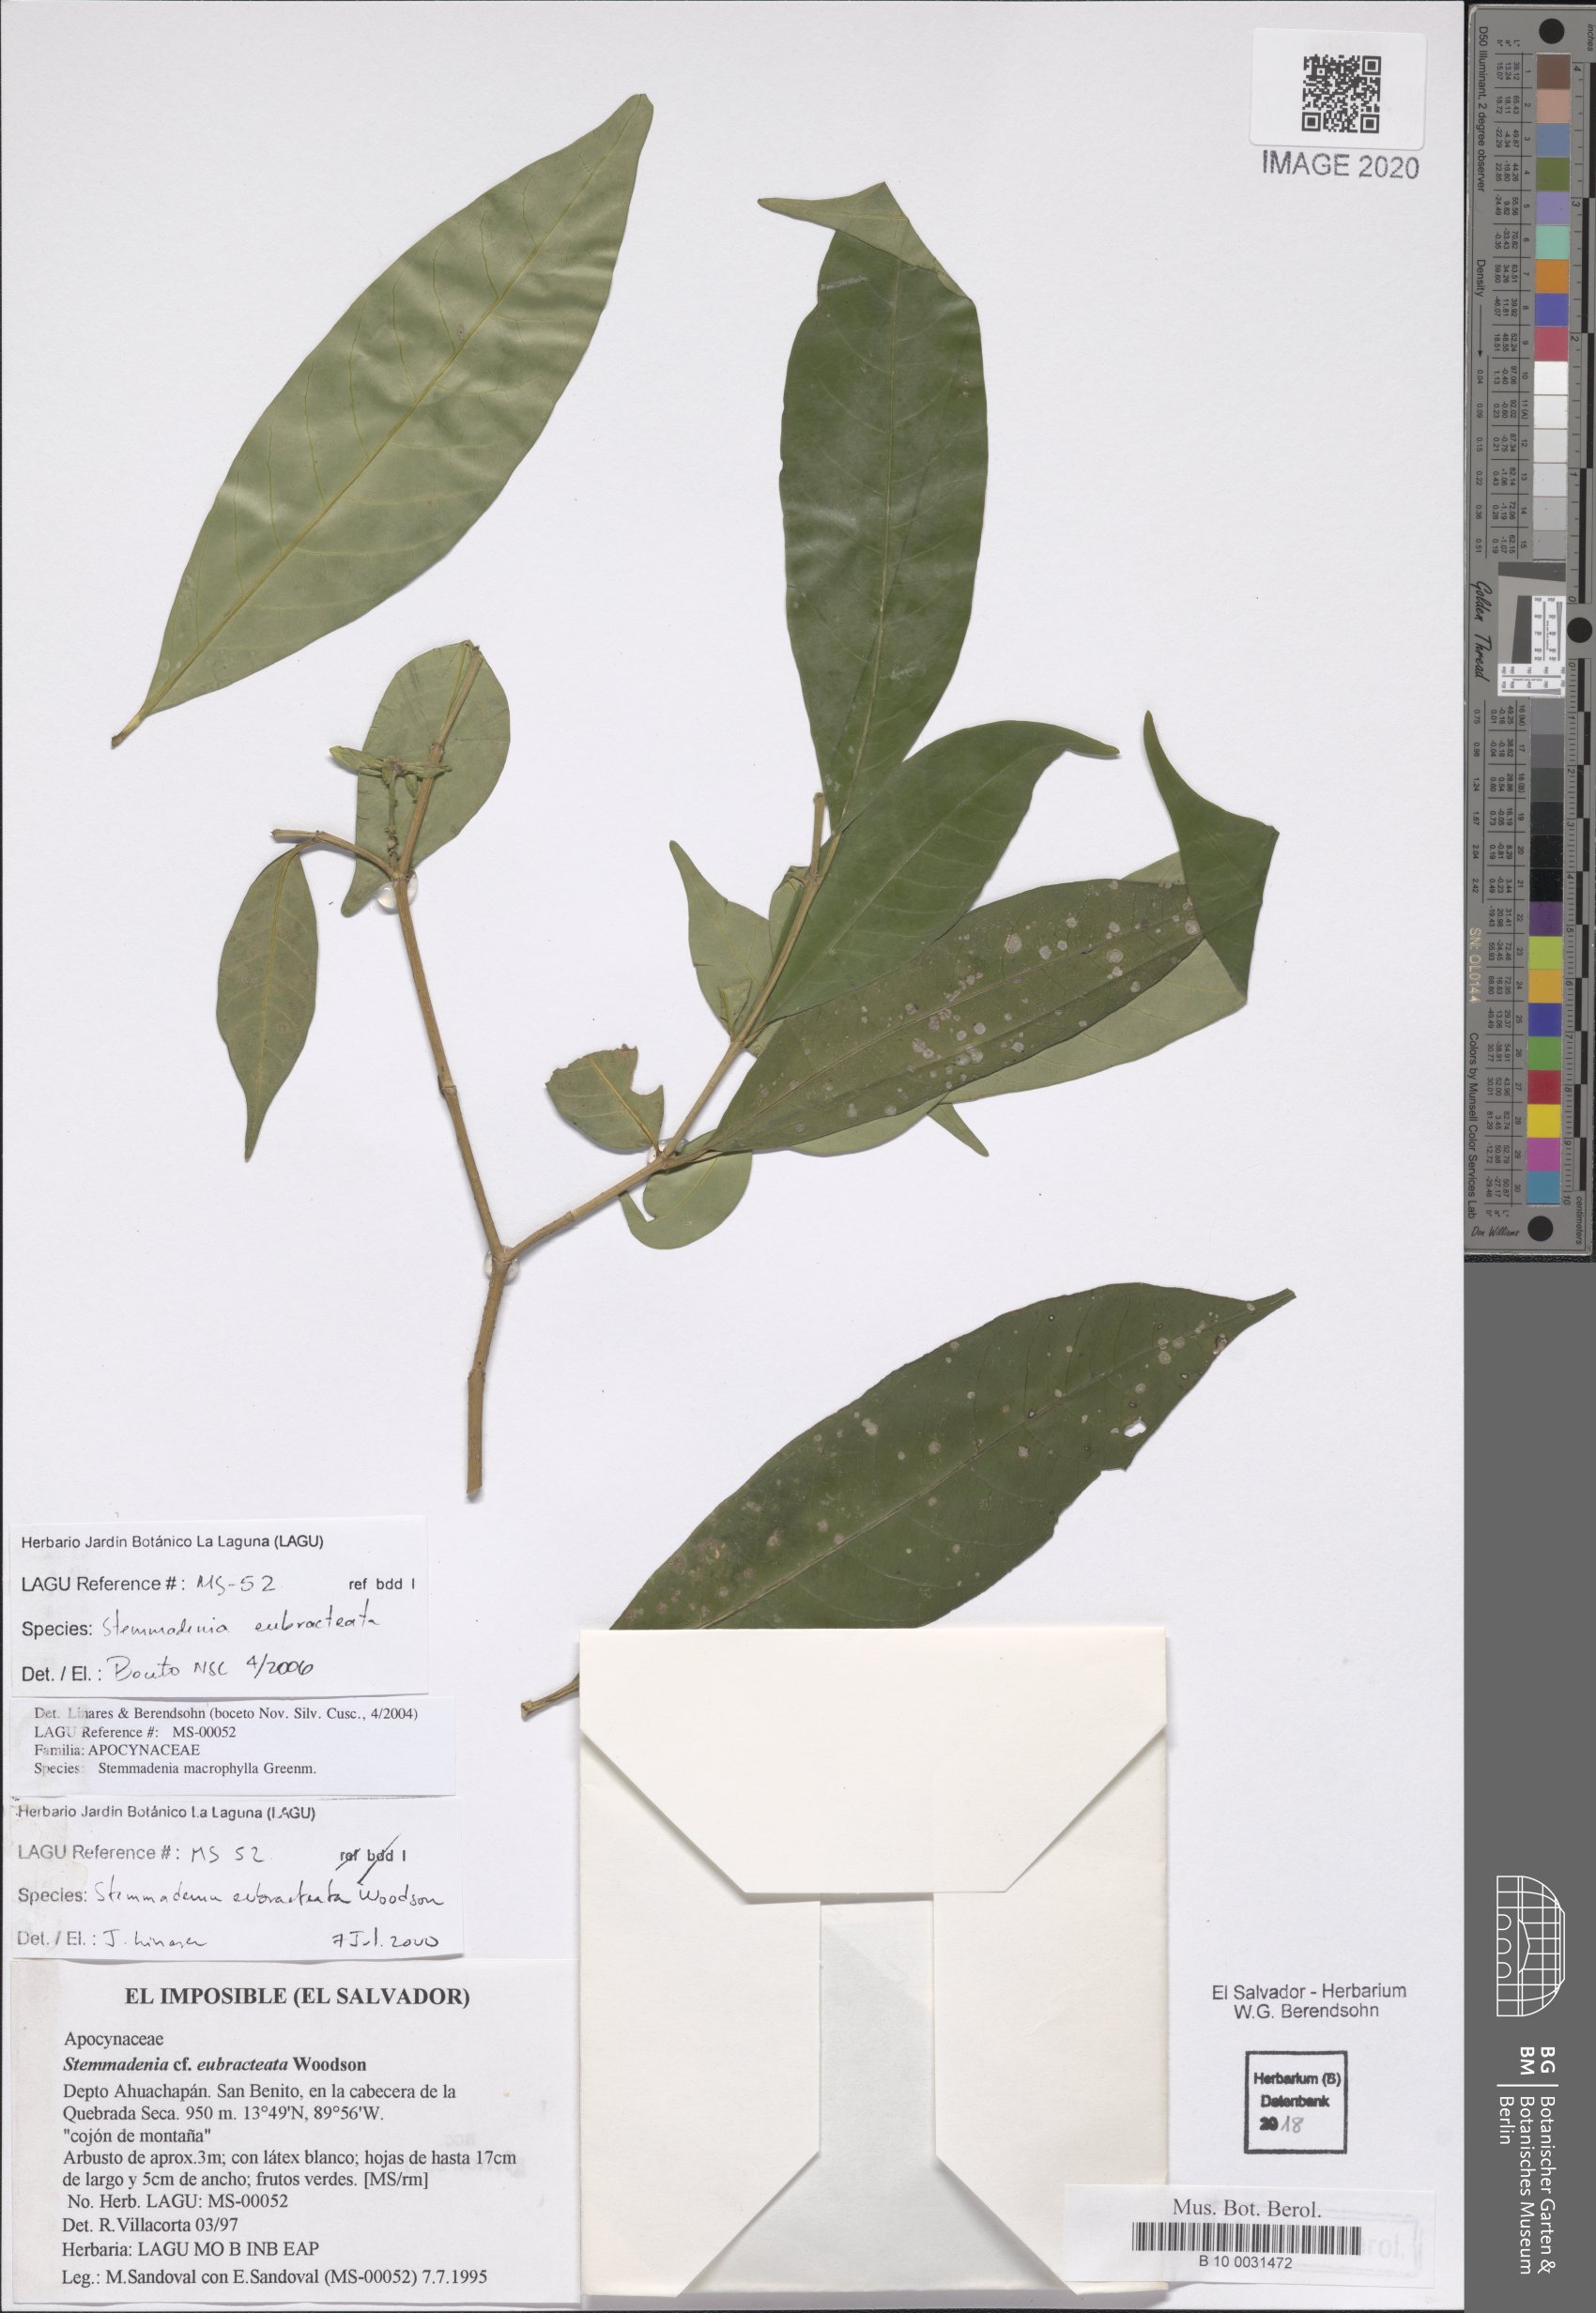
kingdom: Plantae
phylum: Tracheophyta
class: Magnoliopsida
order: Gentianales
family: Apocynaceae
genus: Tabernaemontana
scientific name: Tabernaemontana eubracteata
